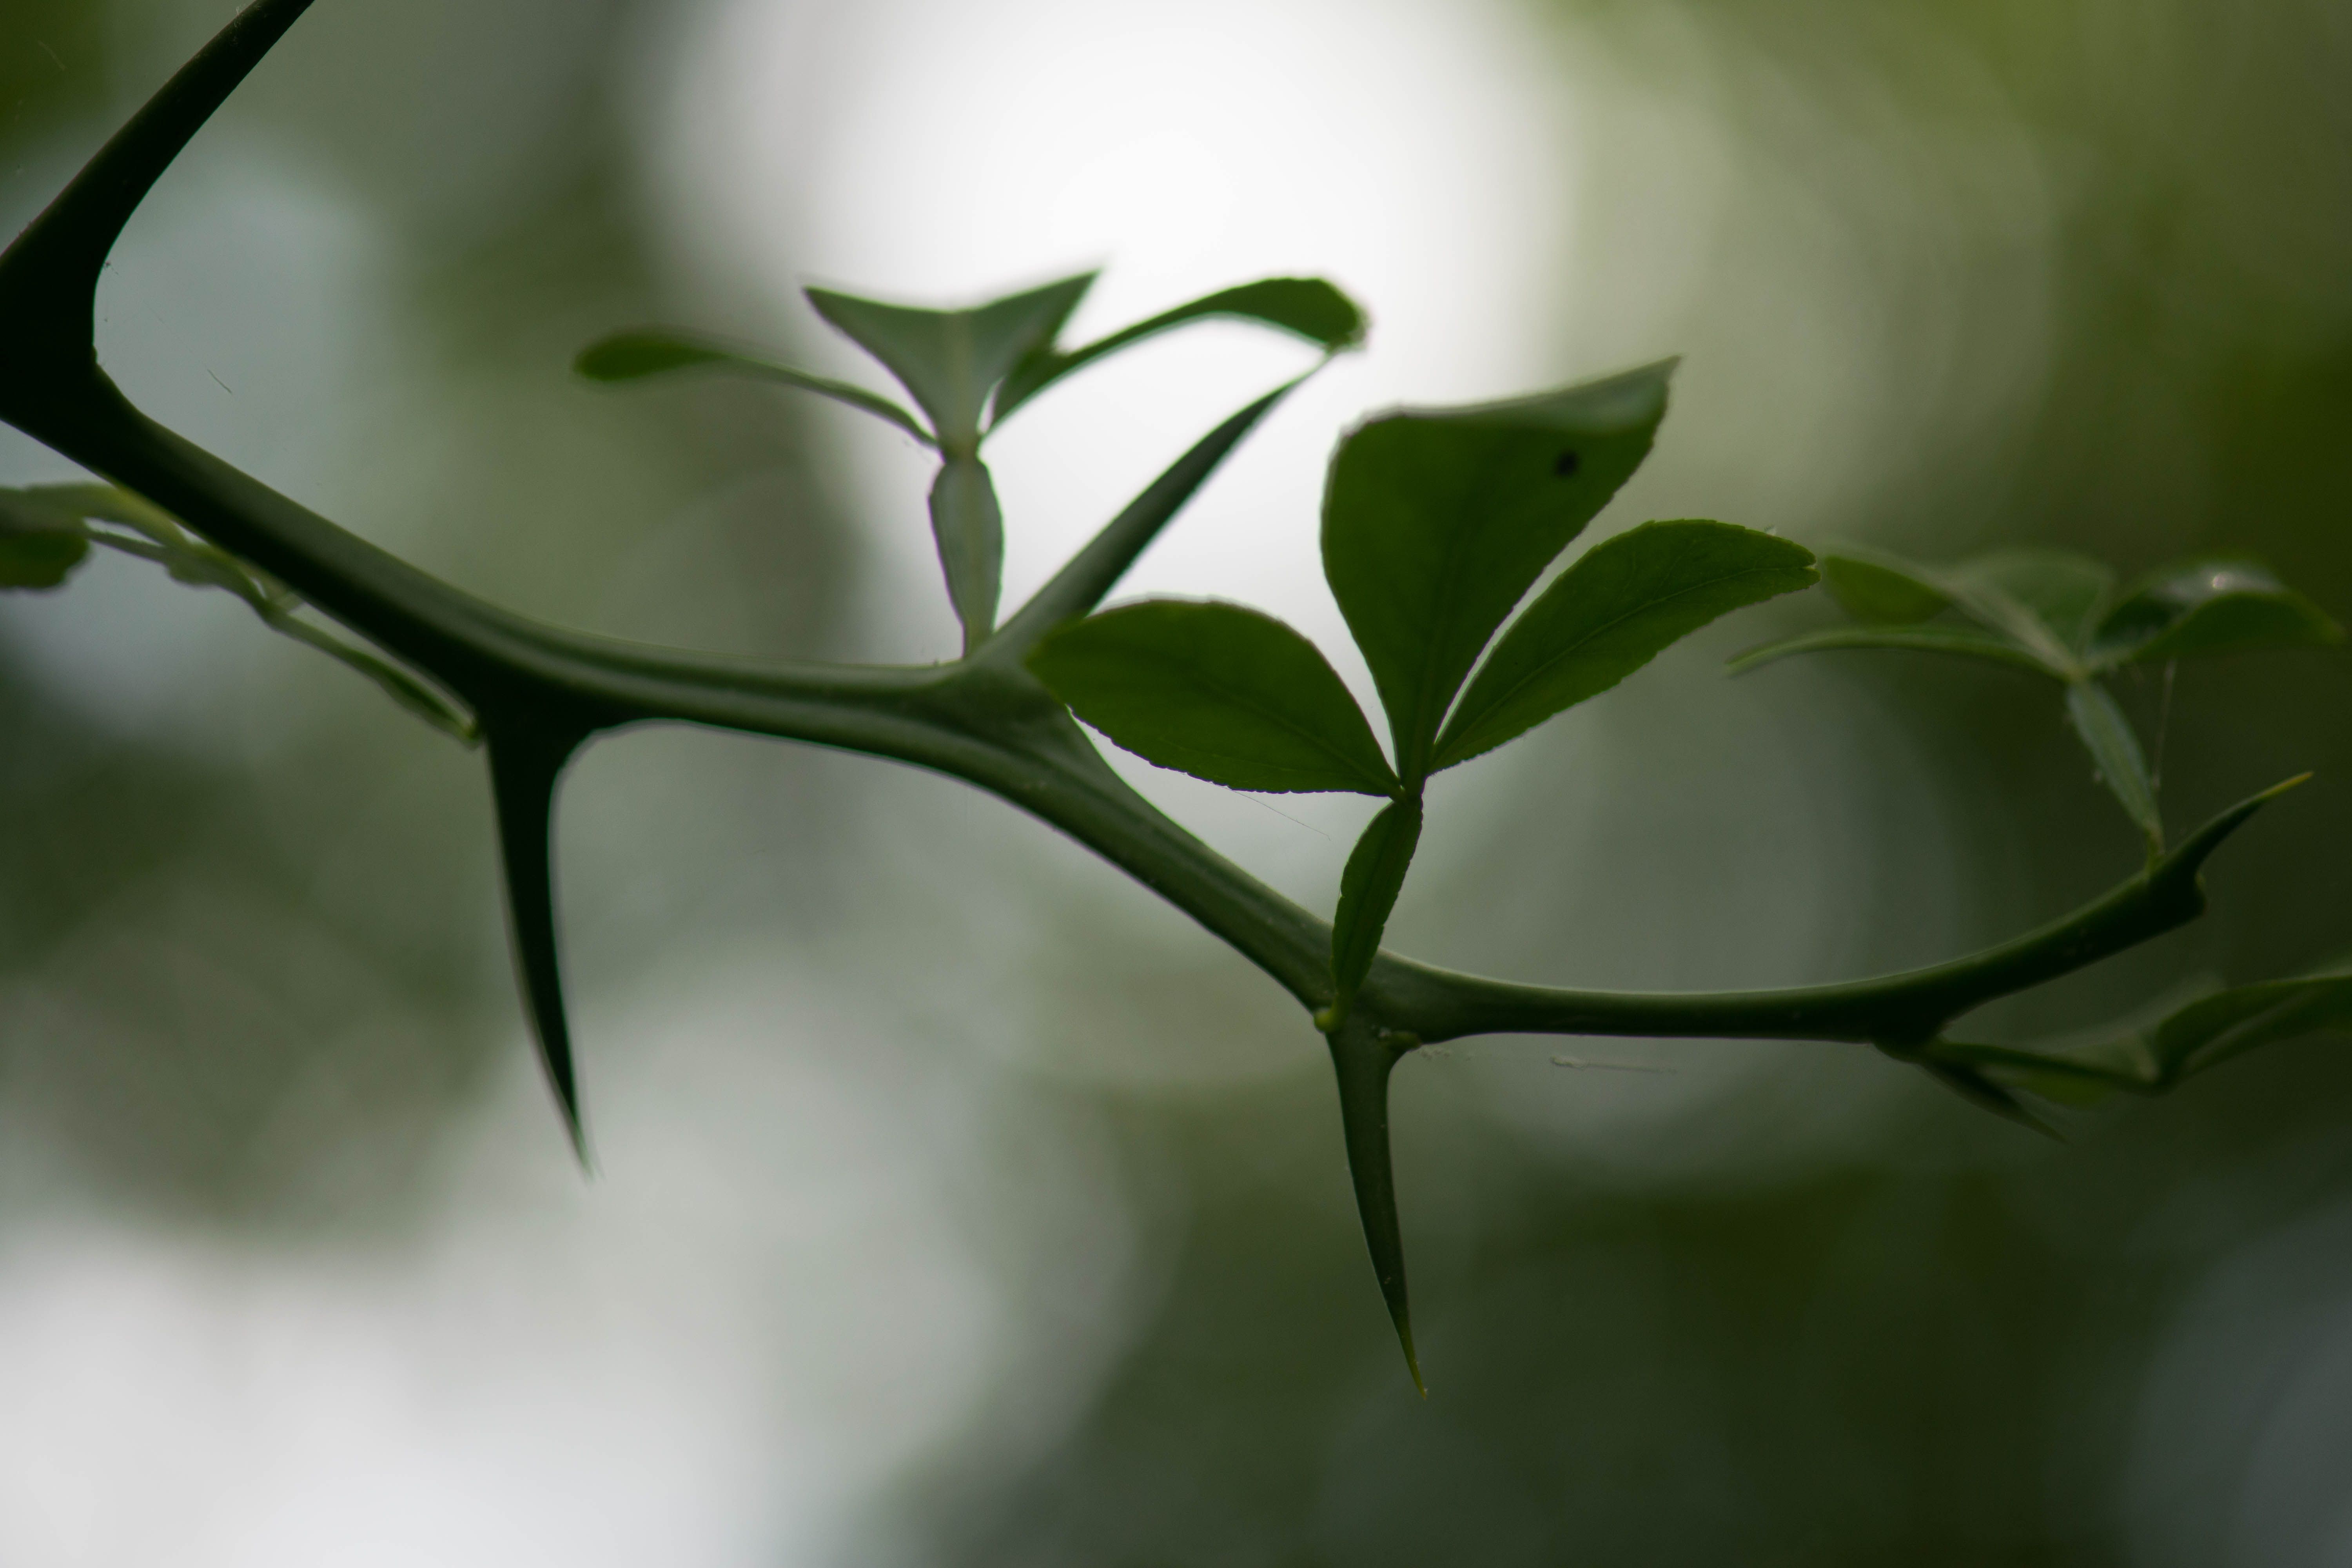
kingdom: Plantae
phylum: Tracheophyta
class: Magnoliopsida
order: Sapindales
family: Rutaceae
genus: Citrus
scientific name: Citrus trifoliata
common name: Hardy Orange
